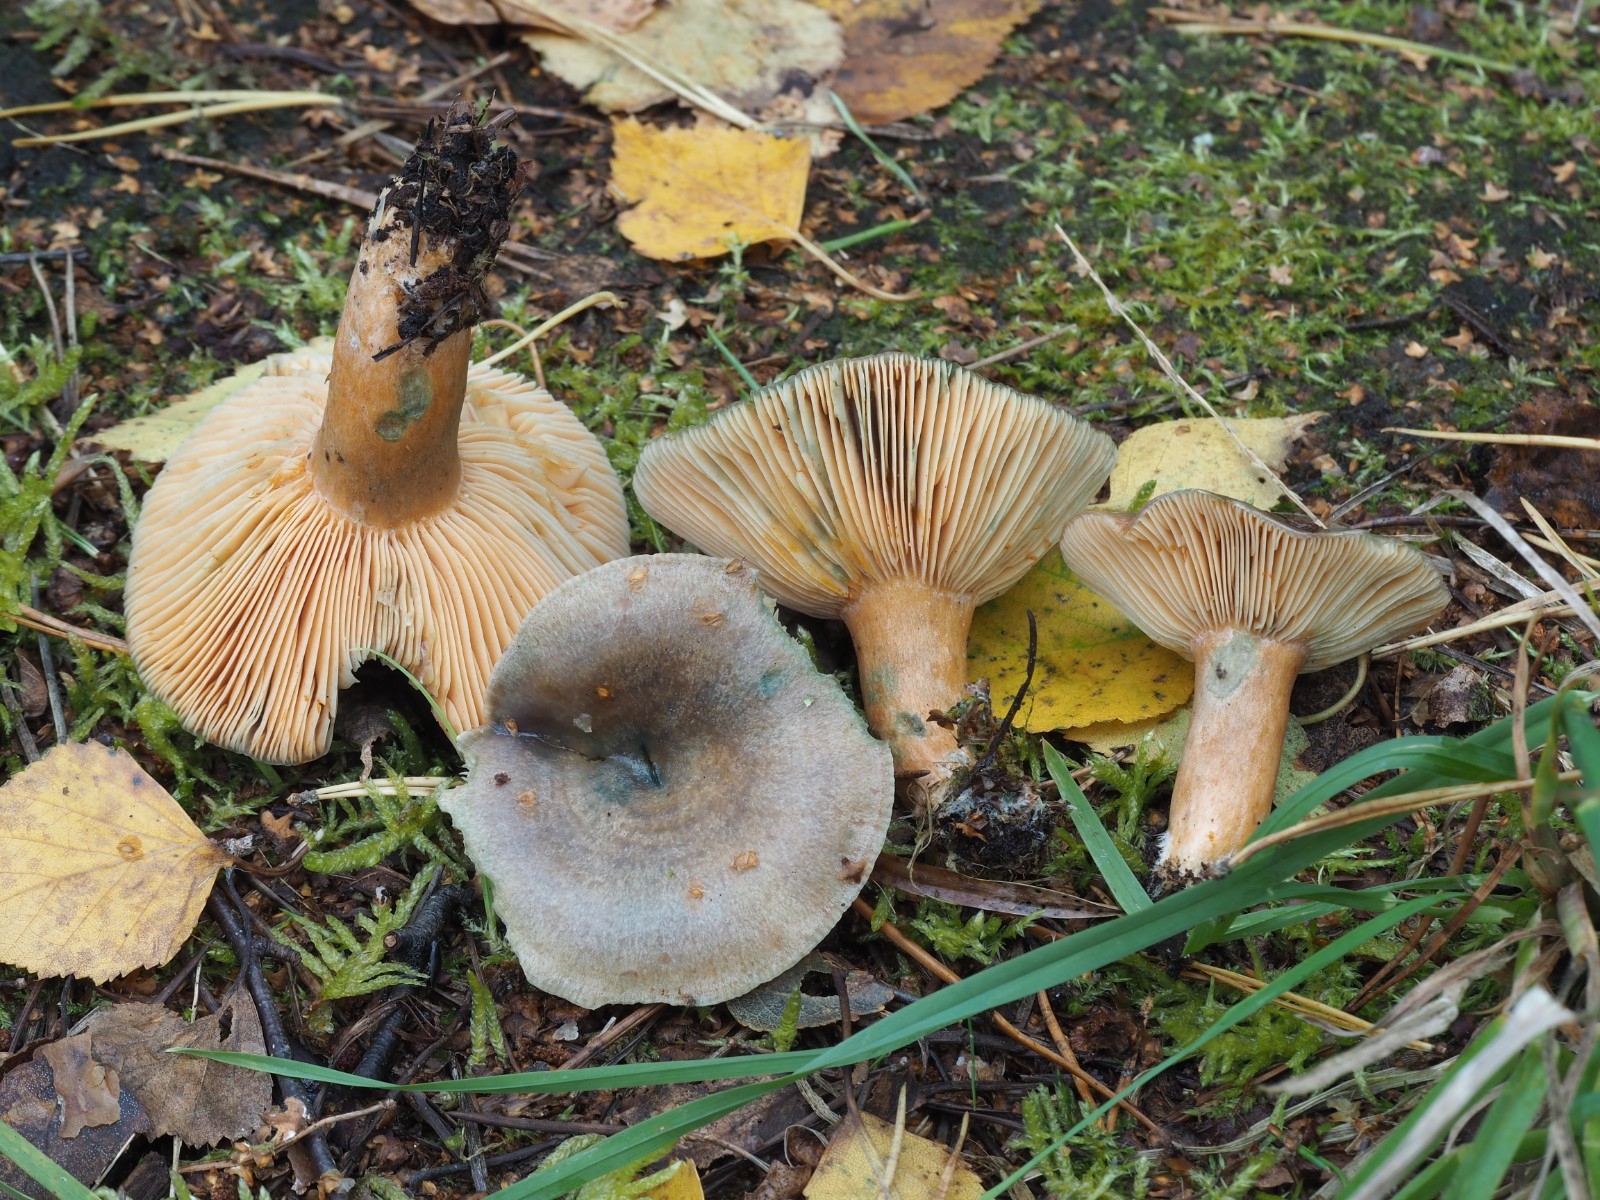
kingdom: Fungi
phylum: Basidiomycota
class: Agaricomycetes
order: Russulales
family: Russulaceae
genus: Lactarius
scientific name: Lactarius quieticolor
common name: tvefarvet mælkehat
